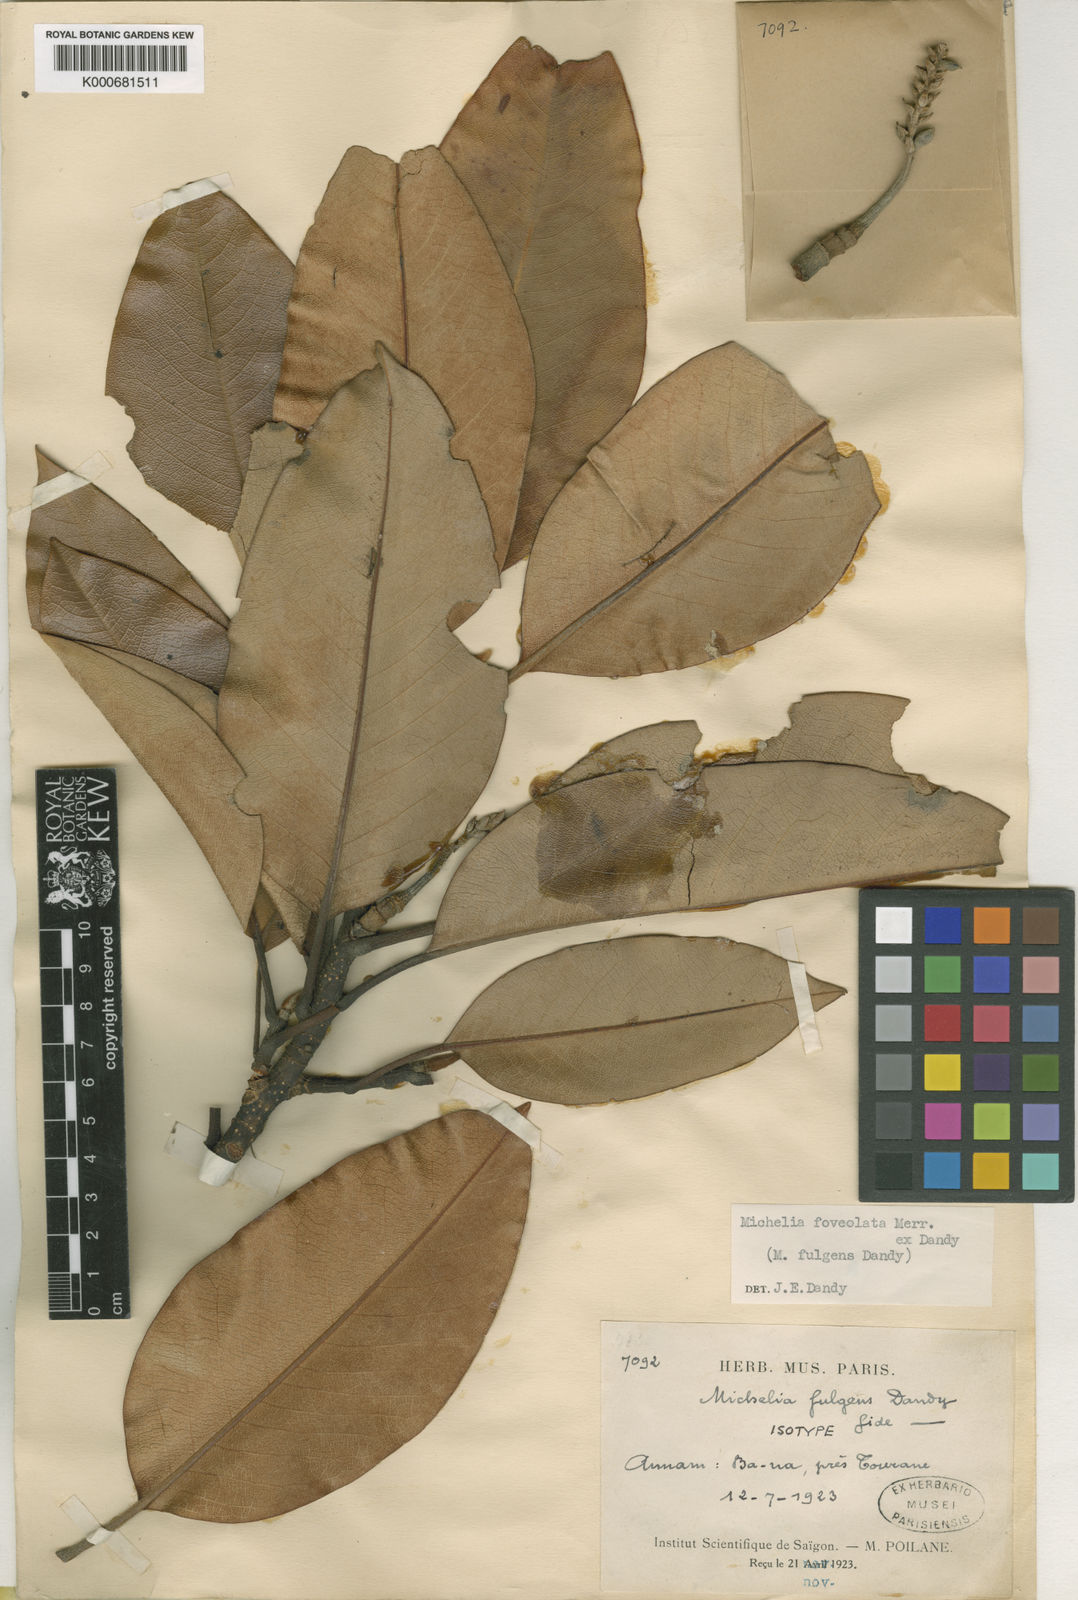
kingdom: Plantae
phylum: Tracheophyta
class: Magnoliopsida
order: Magnoliales
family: Magnoliaceae
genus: Magnolia
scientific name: Magnolia foveolata
